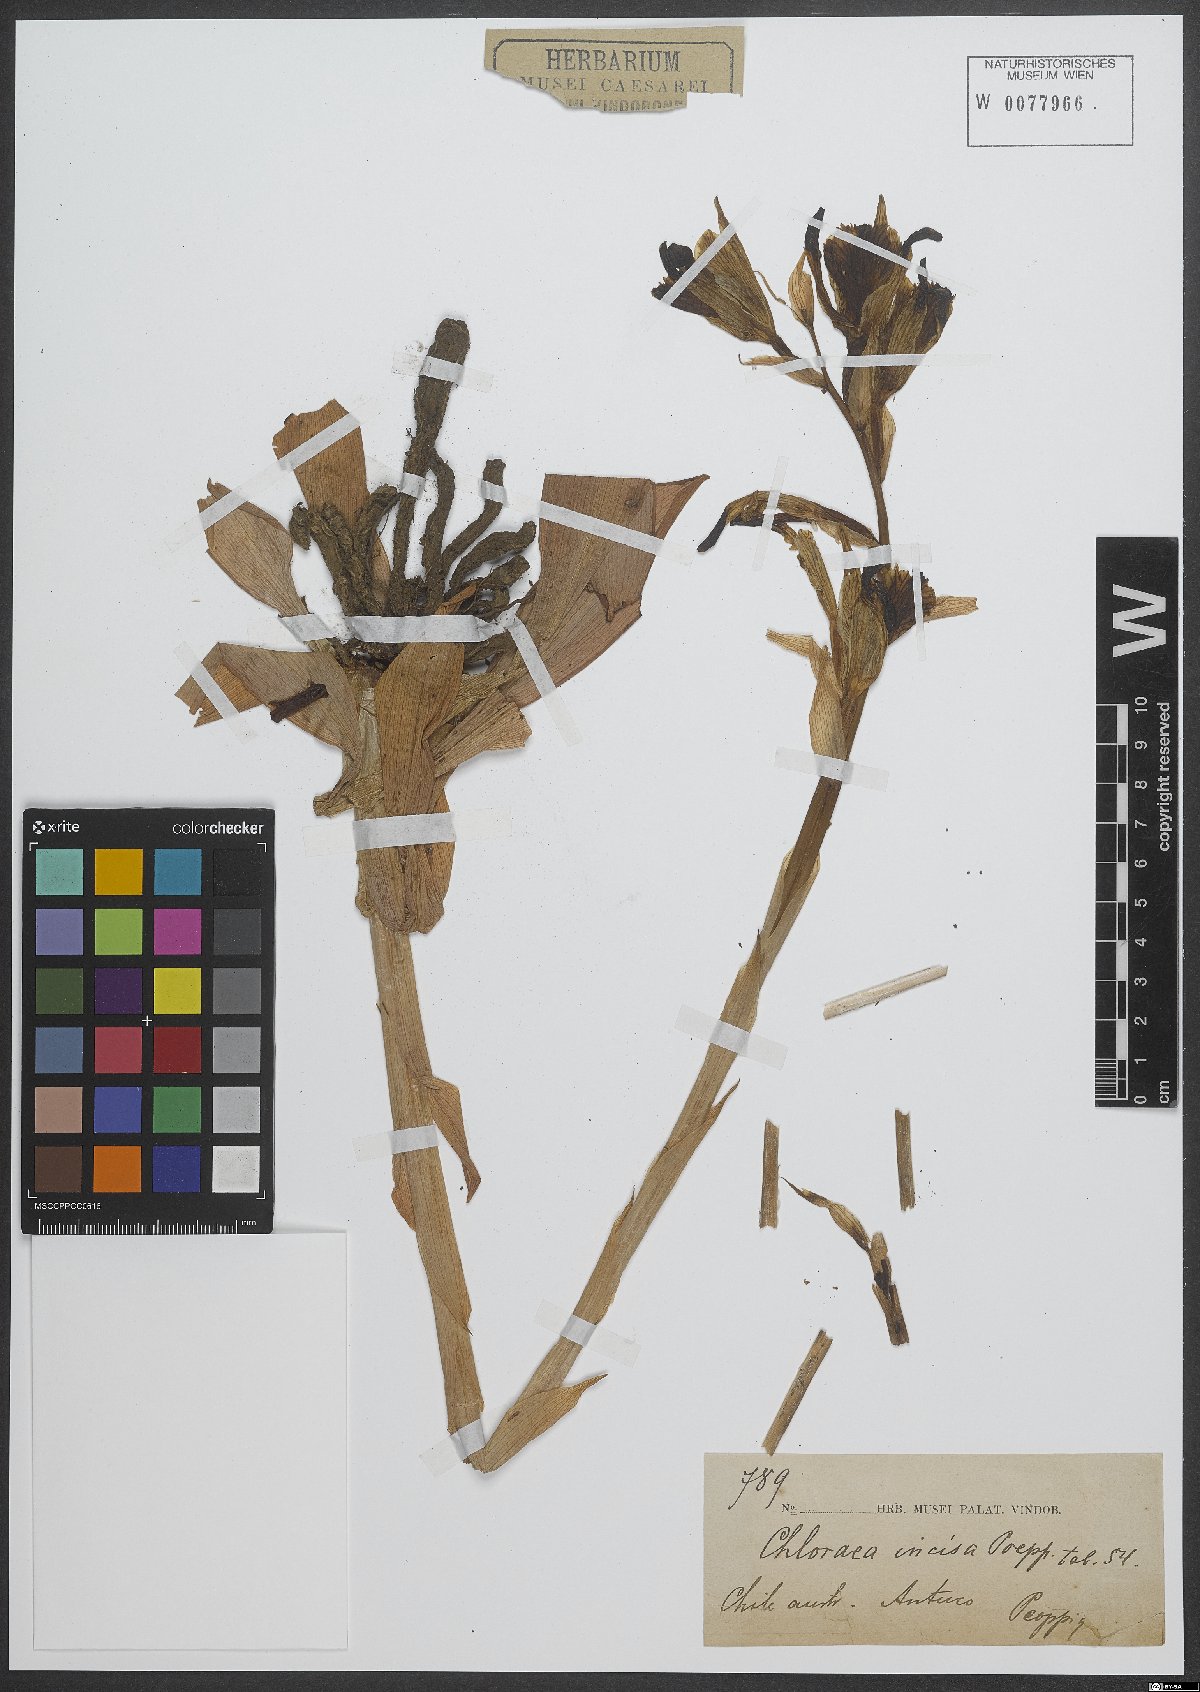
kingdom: Plantae
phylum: Tracheophyta
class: Liliopsida
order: Asparagales
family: Orchidaceae
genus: Chloraea
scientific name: Chloraea piquichen
